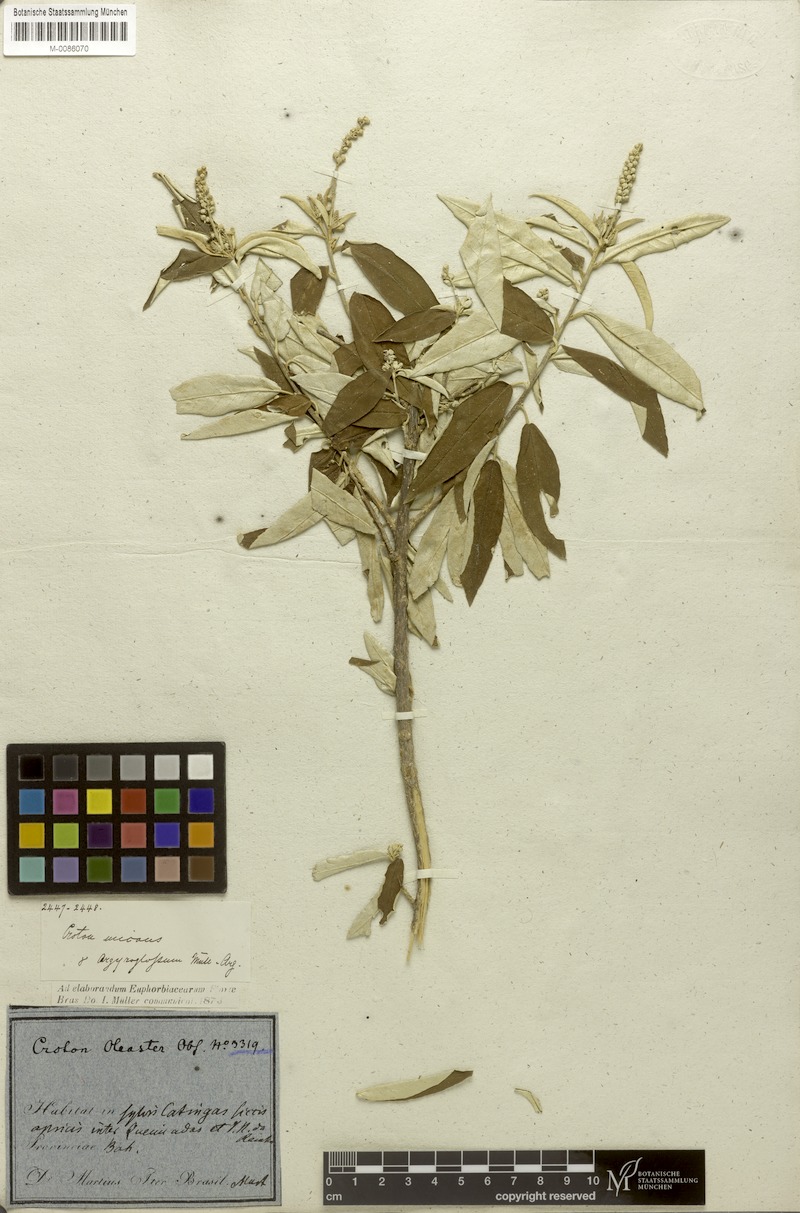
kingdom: Plantae
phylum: Tracheophyta
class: Magnoliopsida
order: Malpighiales
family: Euphorbiaceae
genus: Croton
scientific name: Croton argyrophyllus
